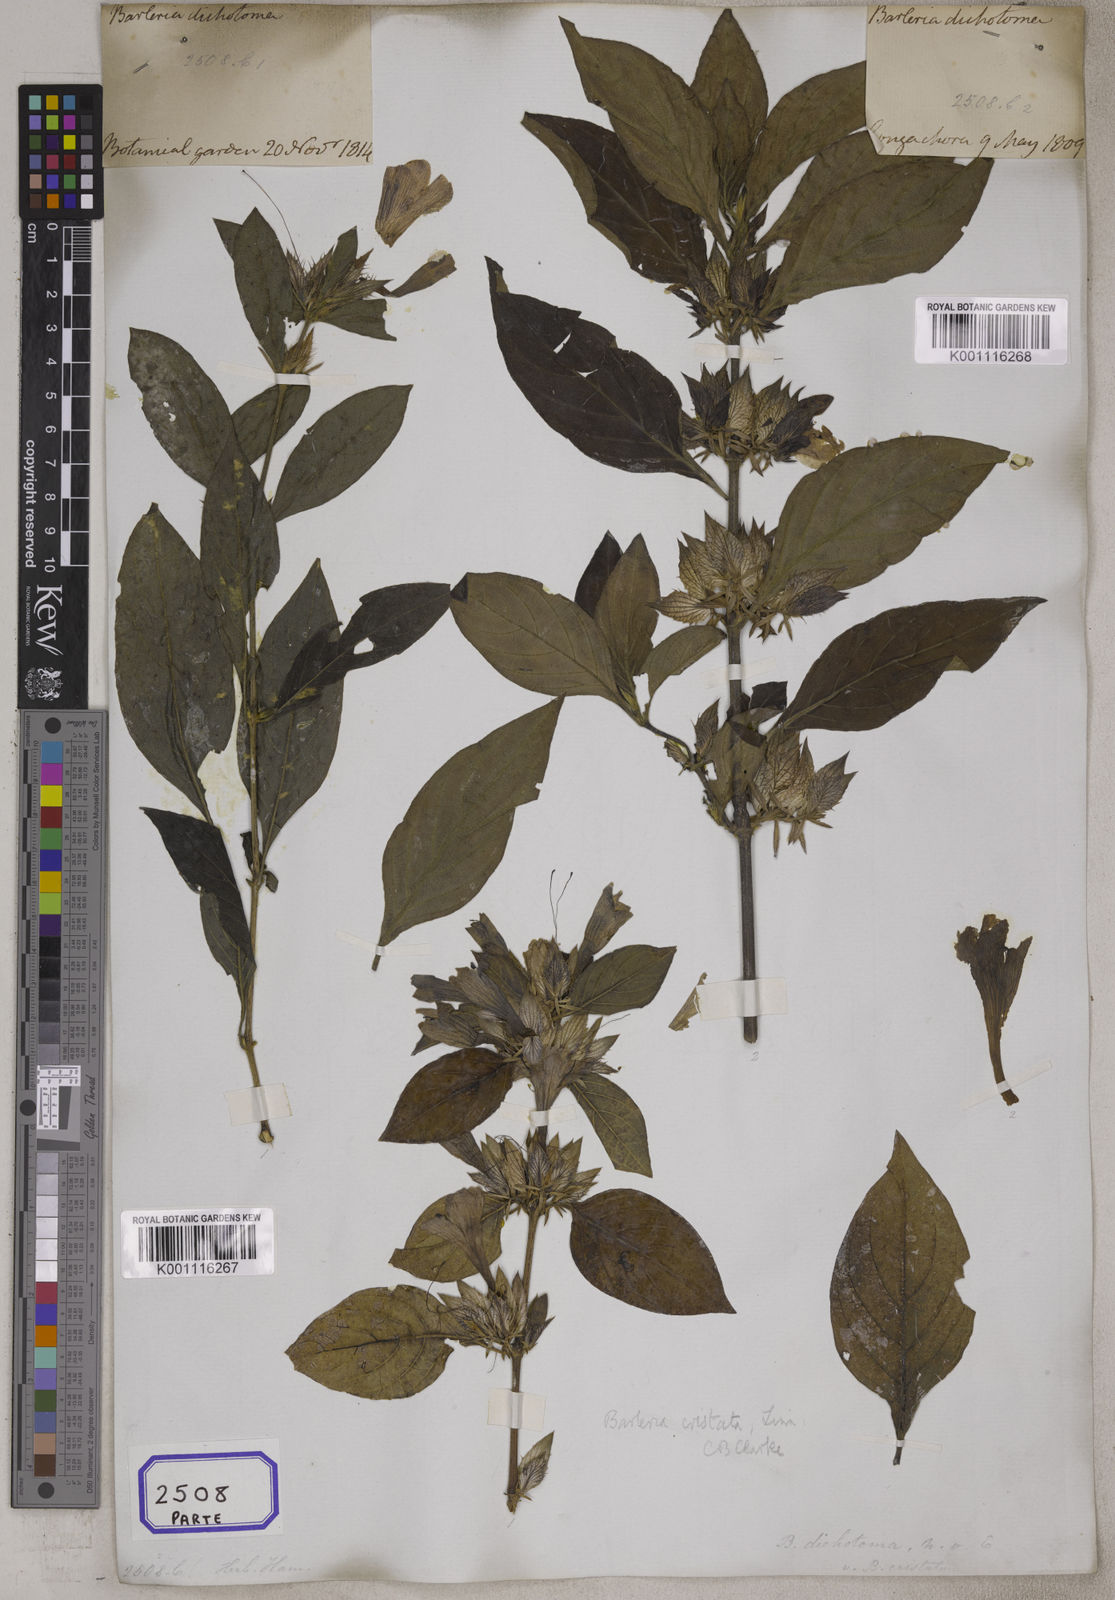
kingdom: Plantae
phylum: Tracheophyta
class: Magnoliopsida
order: Lamiales
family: Acanthaceae
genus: Barleria
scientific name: Barleria cristata
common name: Crested philippine violet
